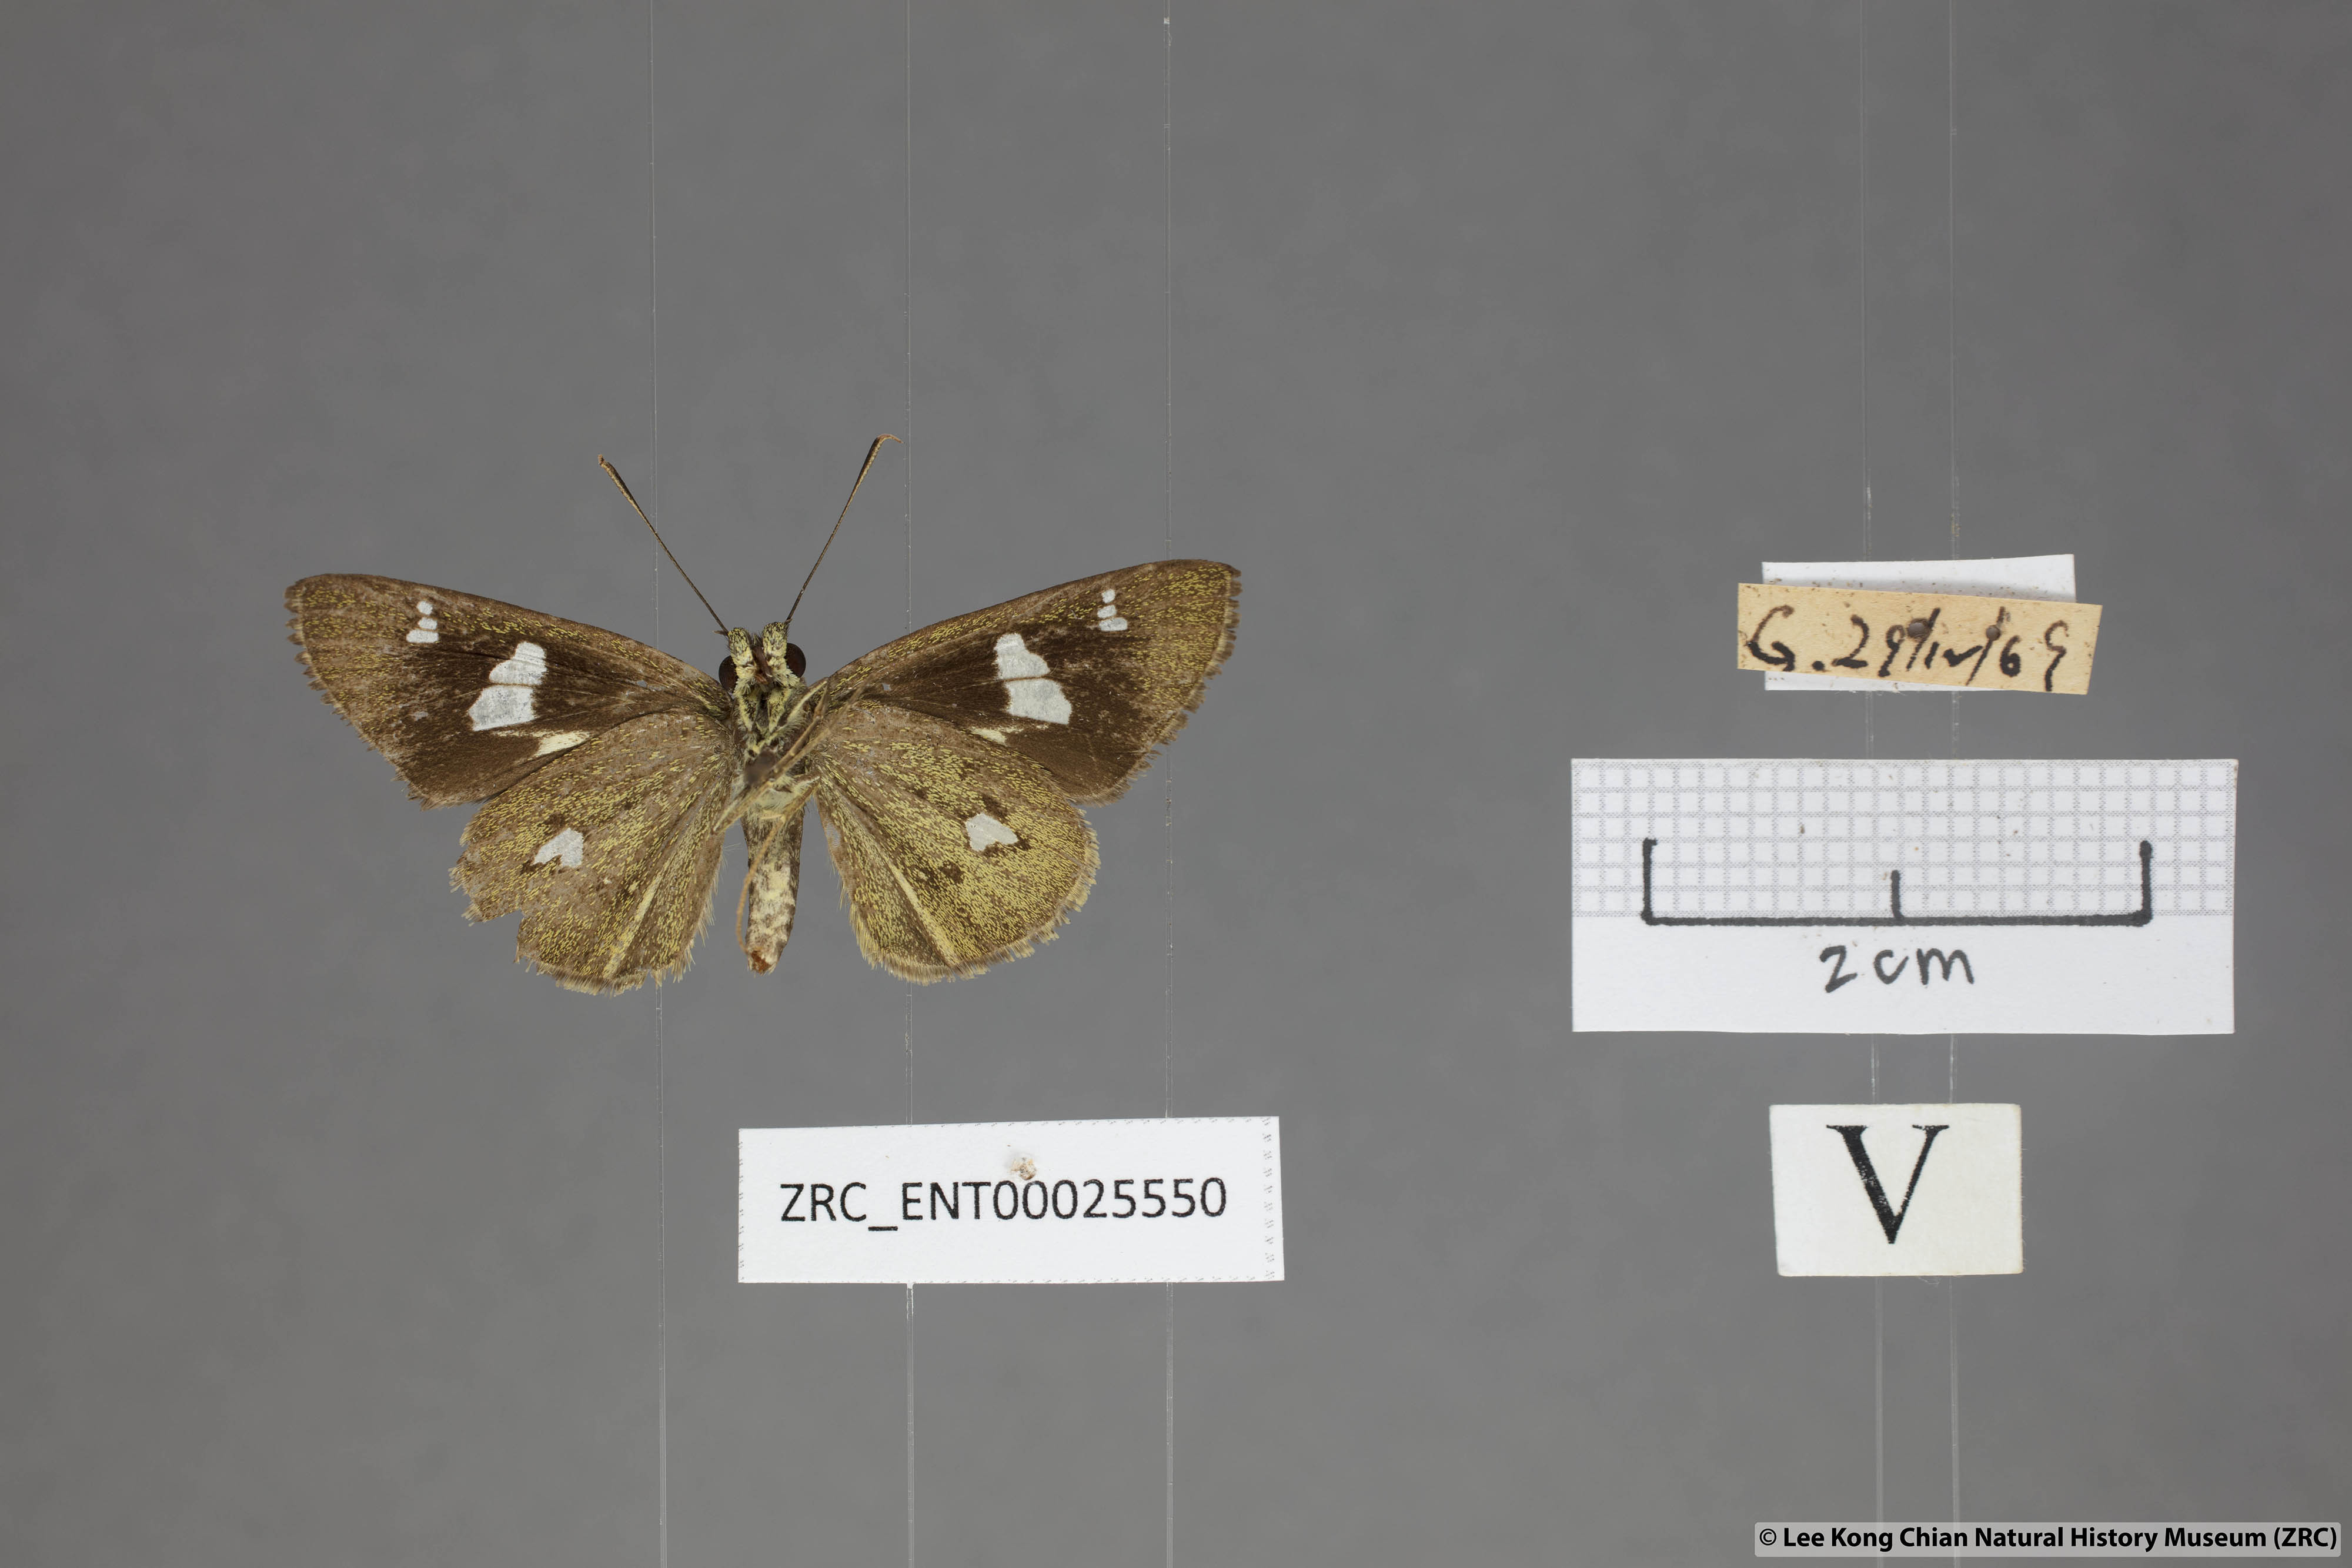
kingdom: Animalia
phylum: Arthropoda
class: Insecta
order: Lepidoptera
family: Hesperiidae
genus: Scobura
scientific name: Scobura phiditia
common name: Malay forest bob
